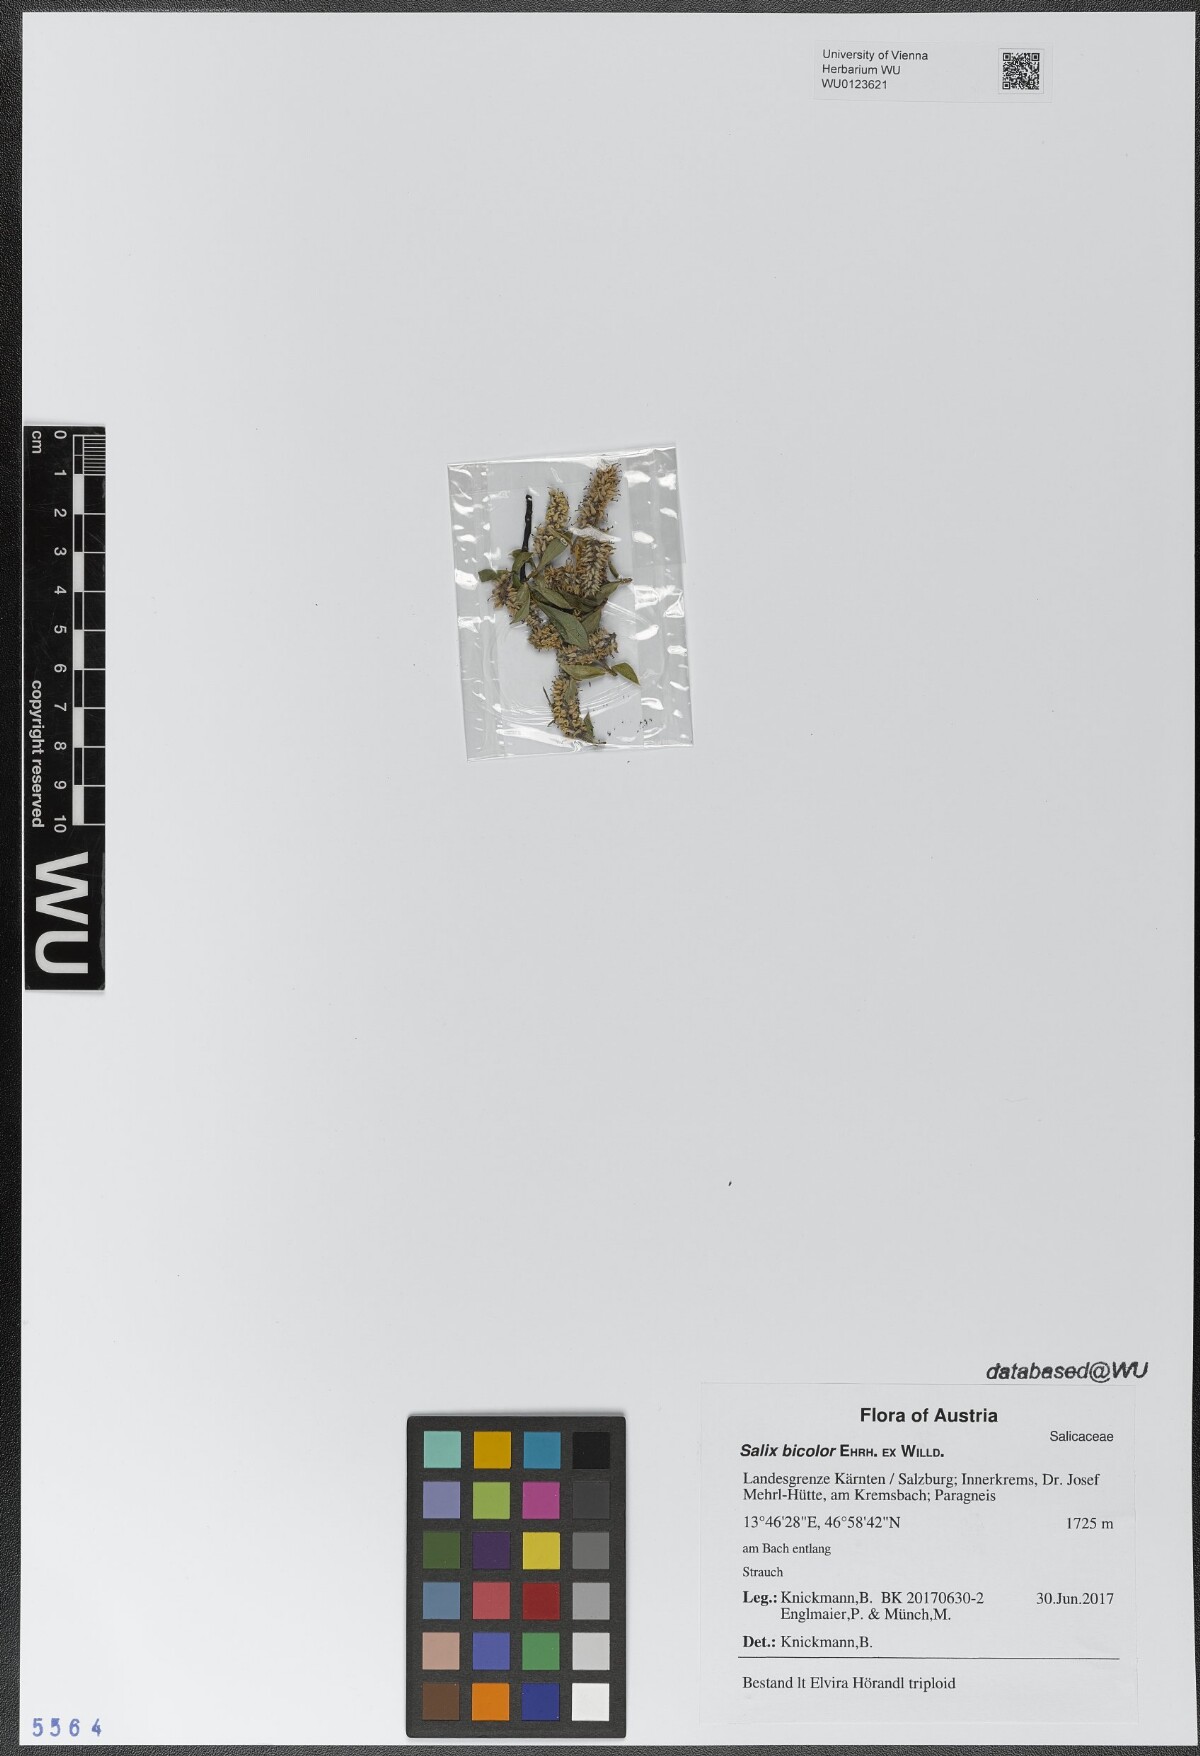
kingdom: Plantae
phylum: Tracheophyta
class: Magnoliopsida
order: Malpighiales
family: Salicaceae
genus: Salix
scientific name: Salix bicolor
